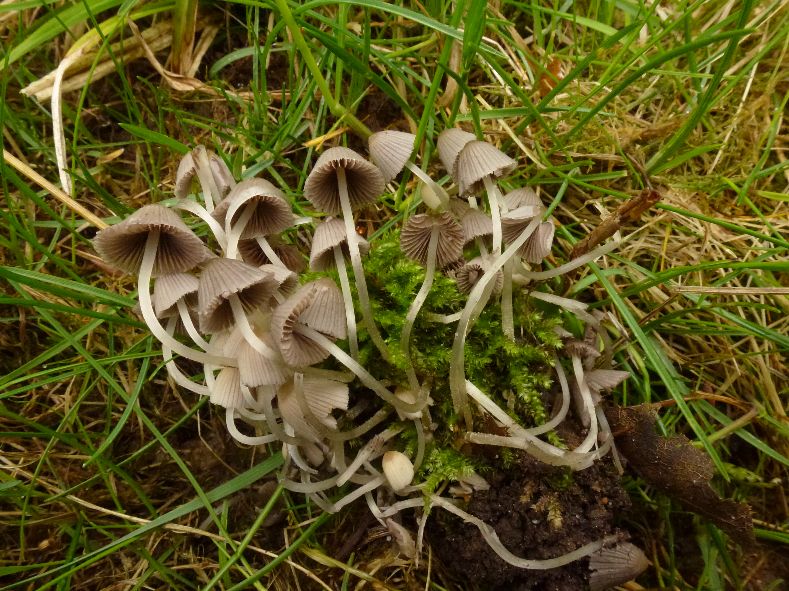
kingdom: Fungi
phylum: Basidiomycota
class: Agaricomycetes
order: Agaricales
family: Psathyrellaceae
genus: Coprinellus
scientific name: Coprinellus disseminatus
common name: bredsået blækhat
